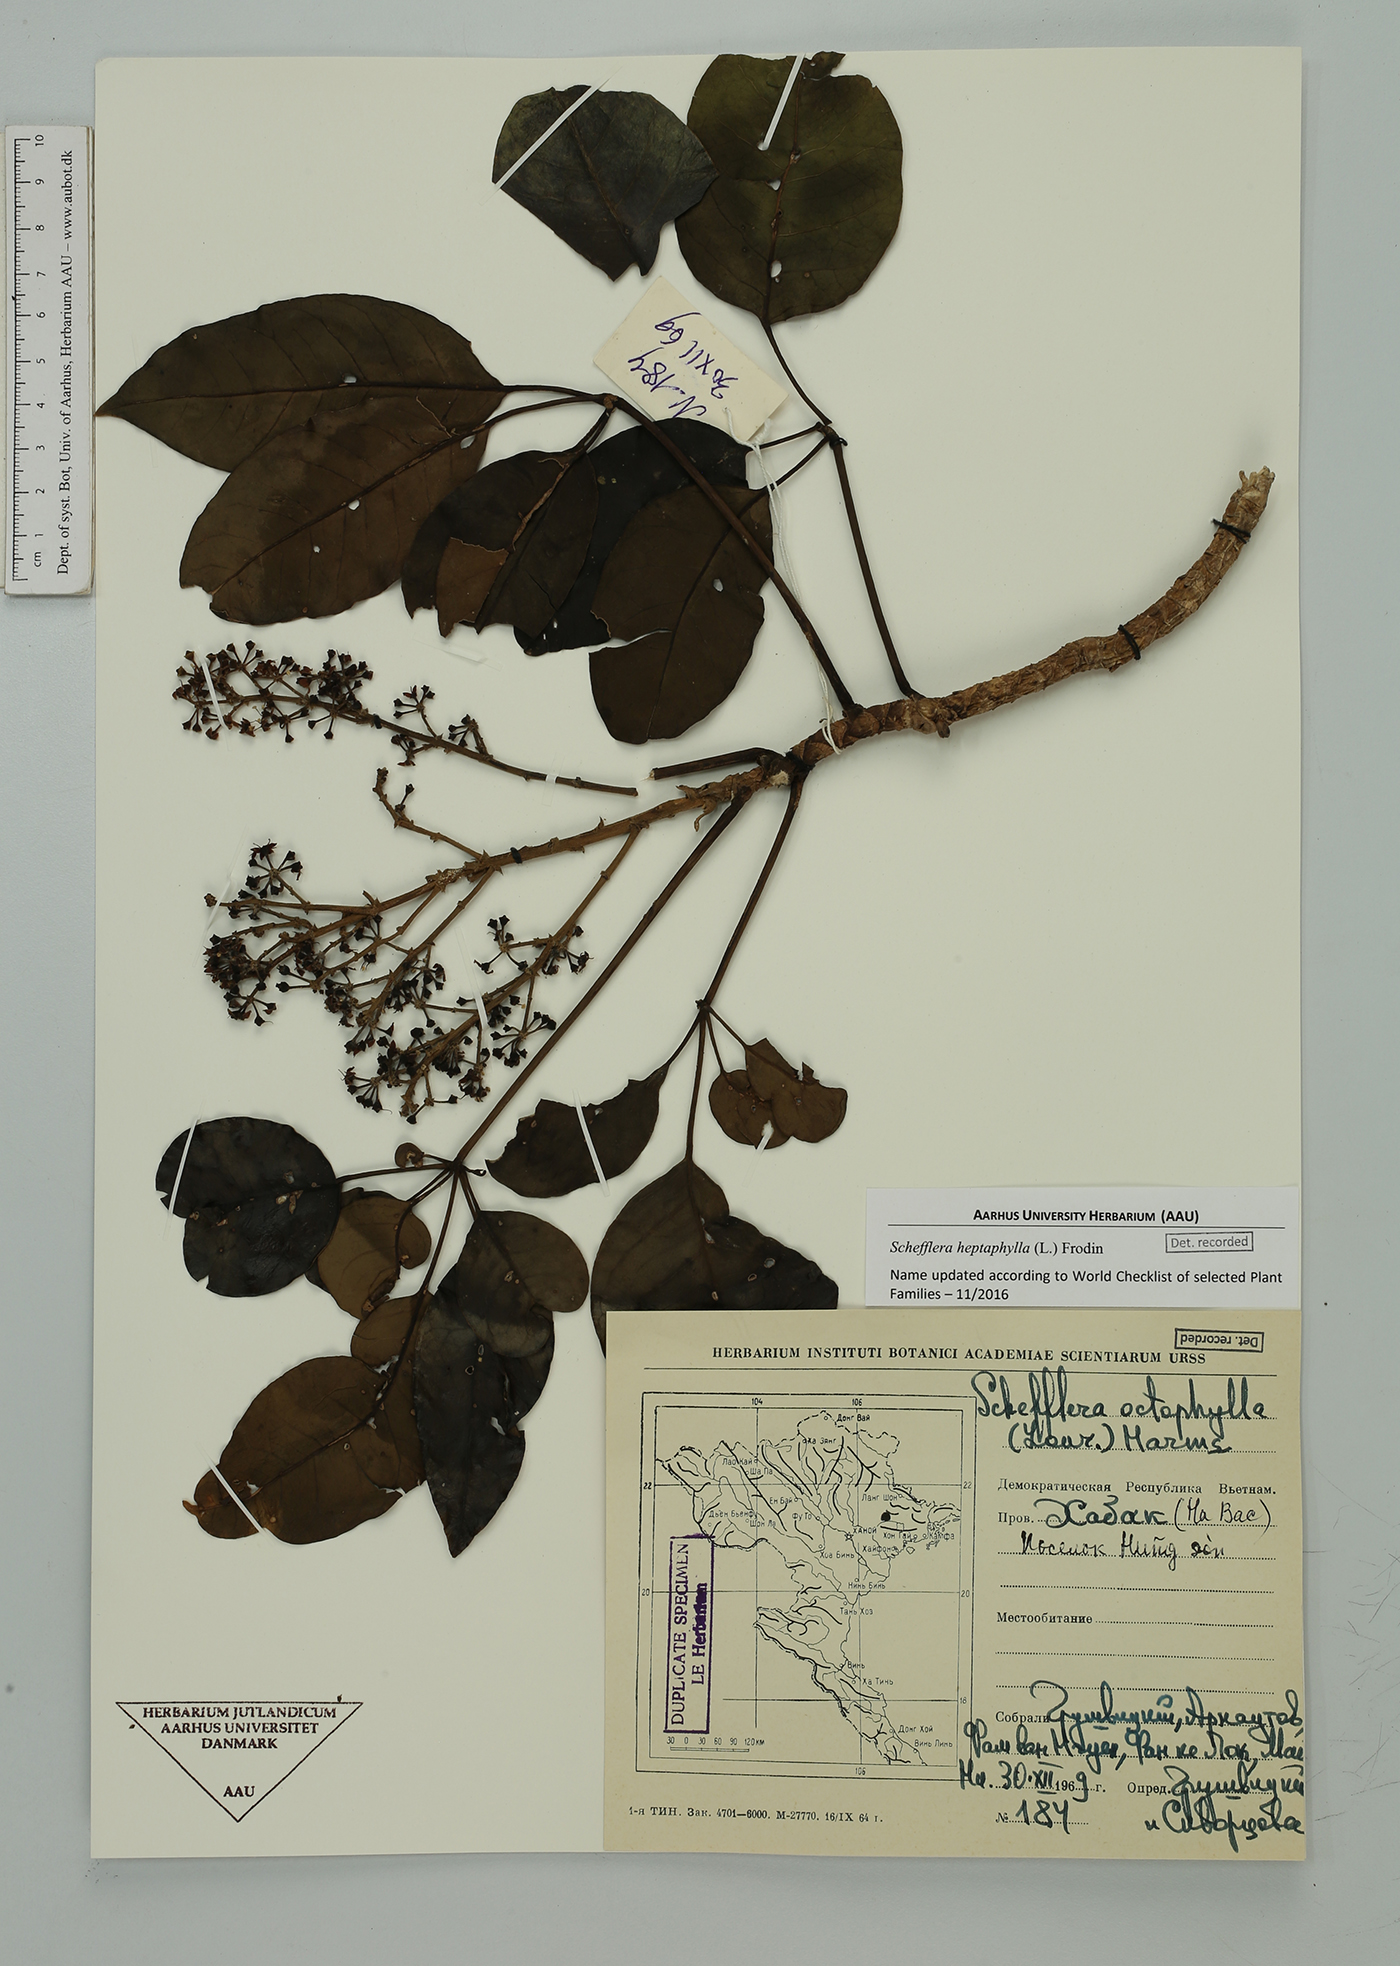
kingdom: Plantae
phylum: Tracheophyta
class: Magnoliopsida
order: Apiales
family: Araliaceae
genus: Heptapleurum
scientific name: Heptapleurum heptaphyllum
